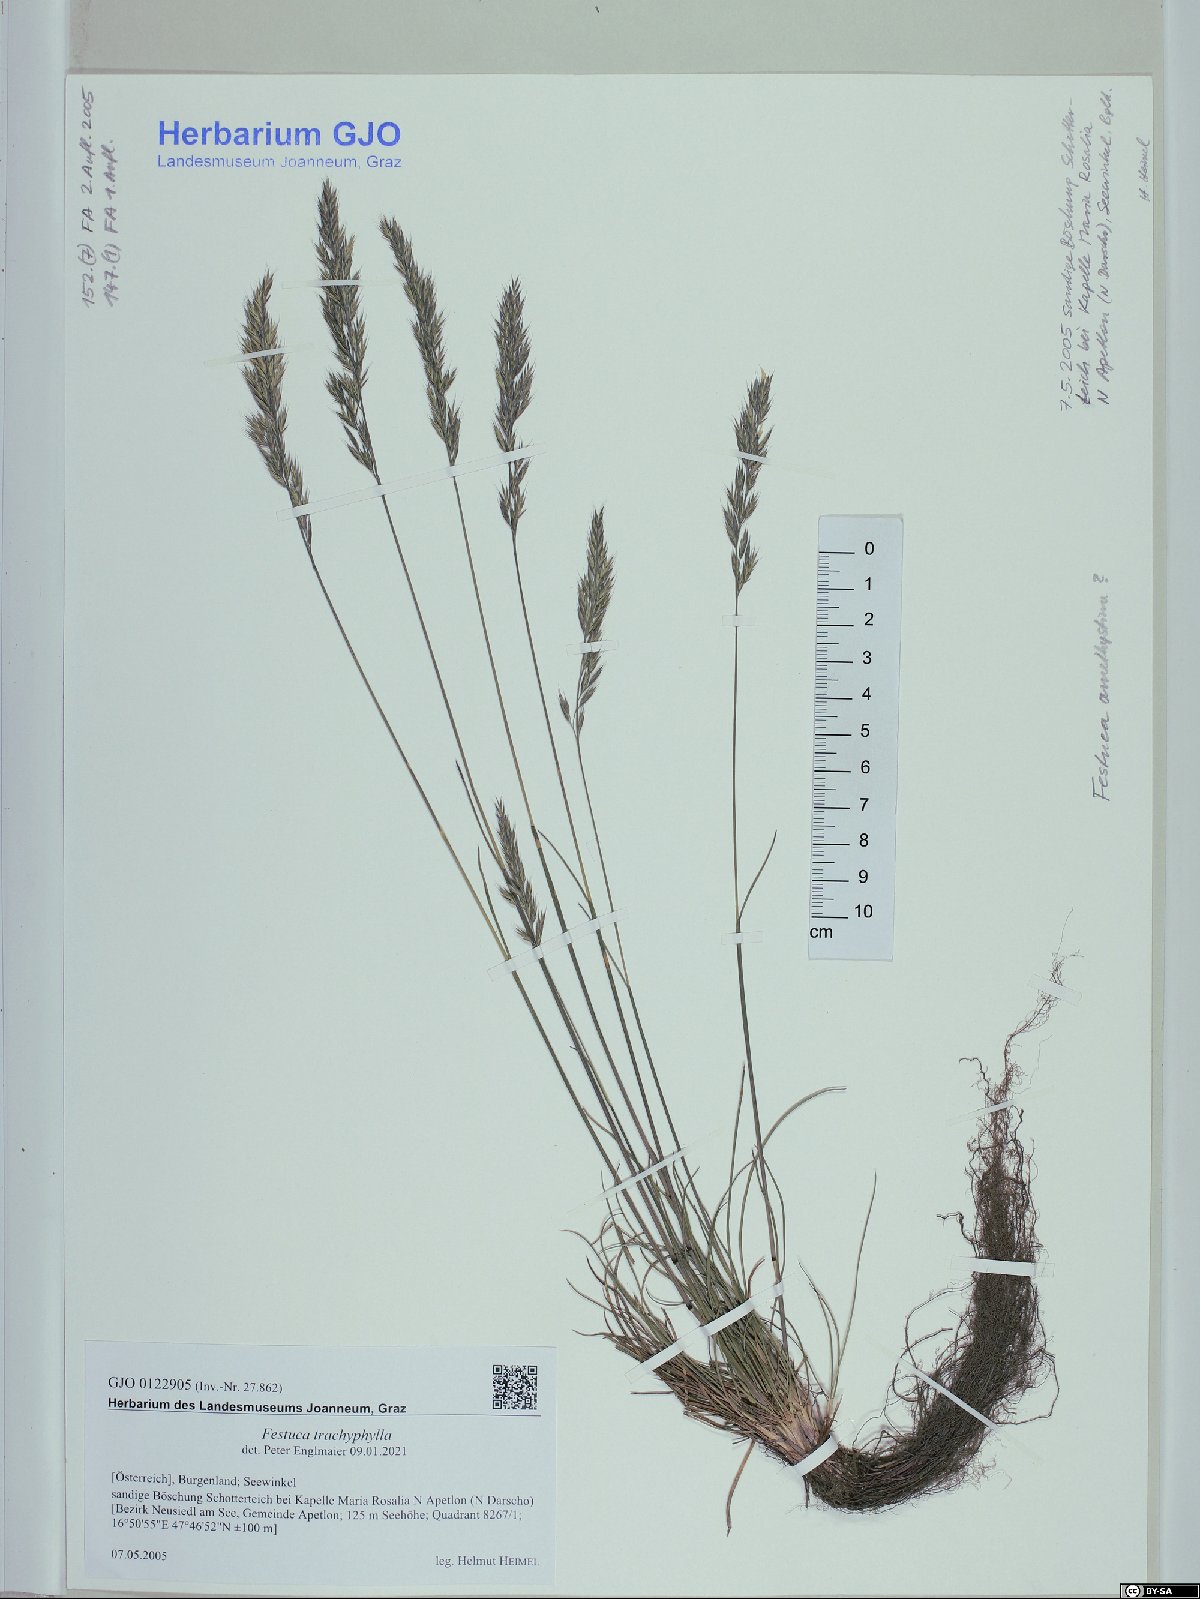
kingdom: Plantae
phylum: Tracheophyta
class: Liliopsida
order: Poales
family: Poaceae
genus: Festuca
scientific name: Festuca trachyphylla
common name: Hard fescue
